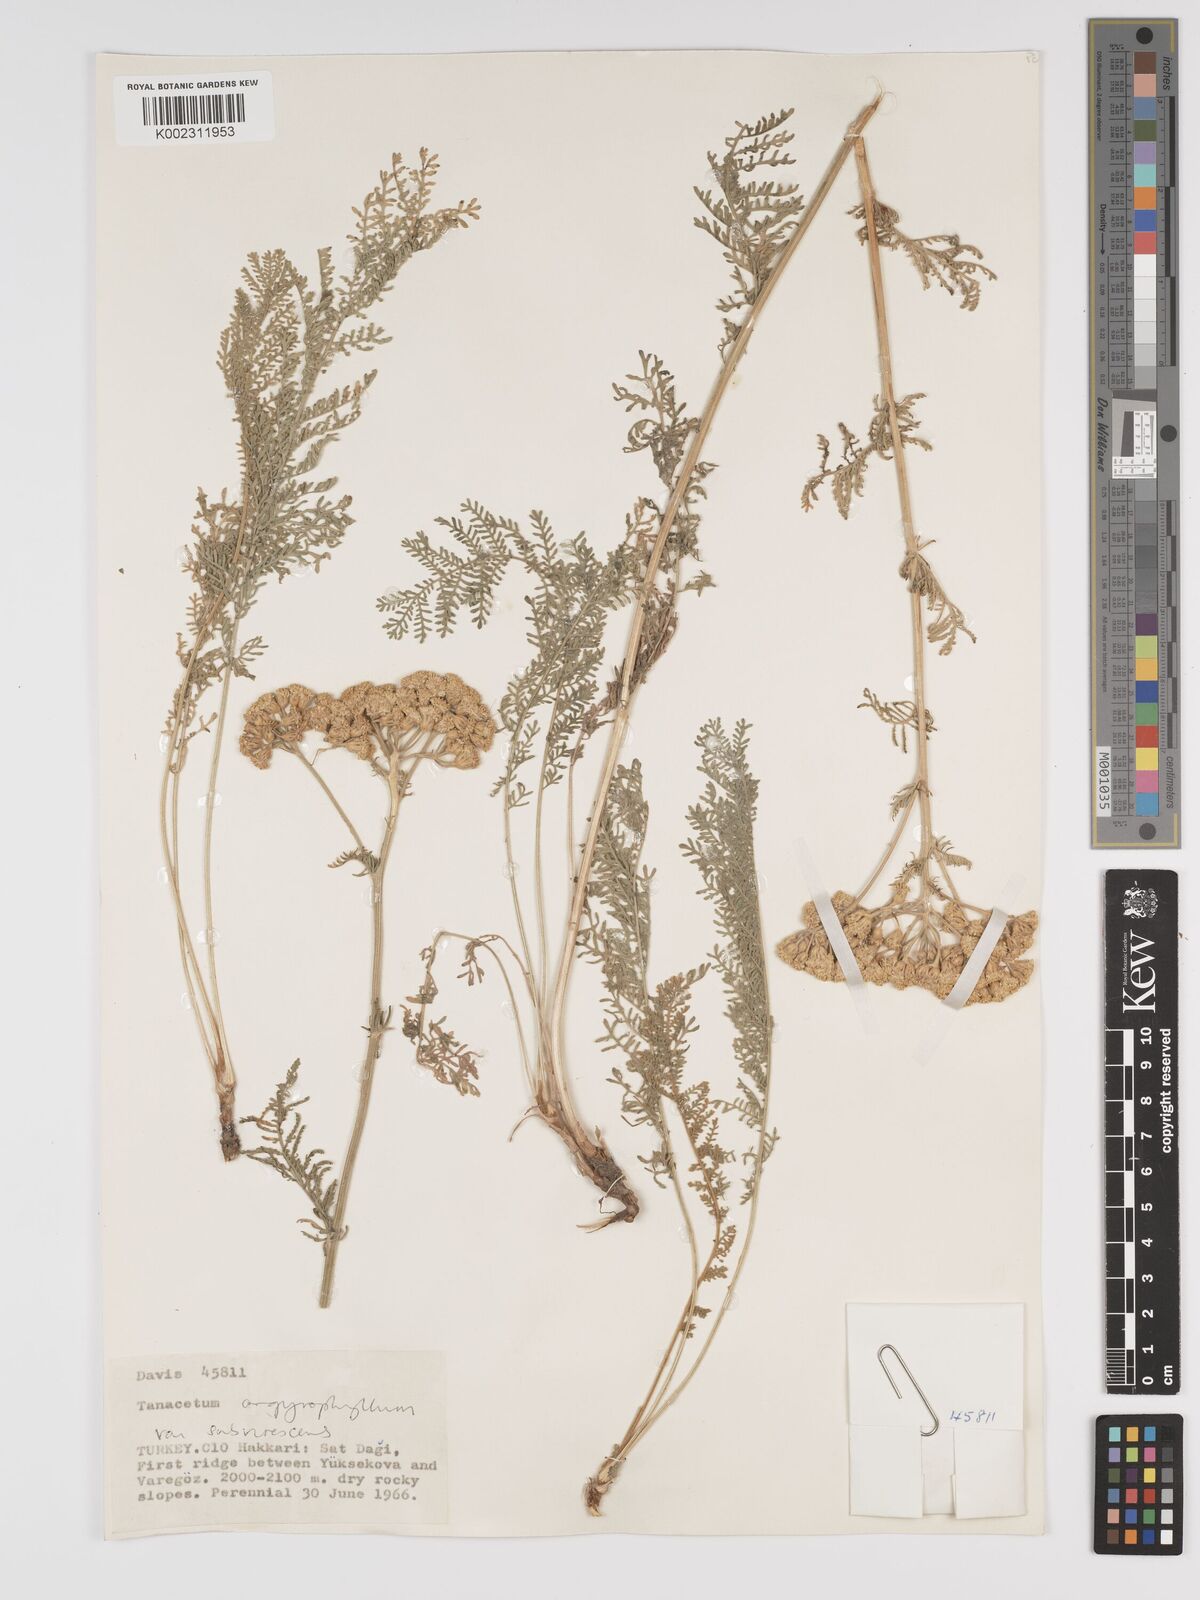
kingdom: Plantae
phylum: Tracheophyta
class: Magnoliopsida
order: Asterales
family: Asteraceae
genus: Tanacetum
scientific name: Tanacetum polycephalum
